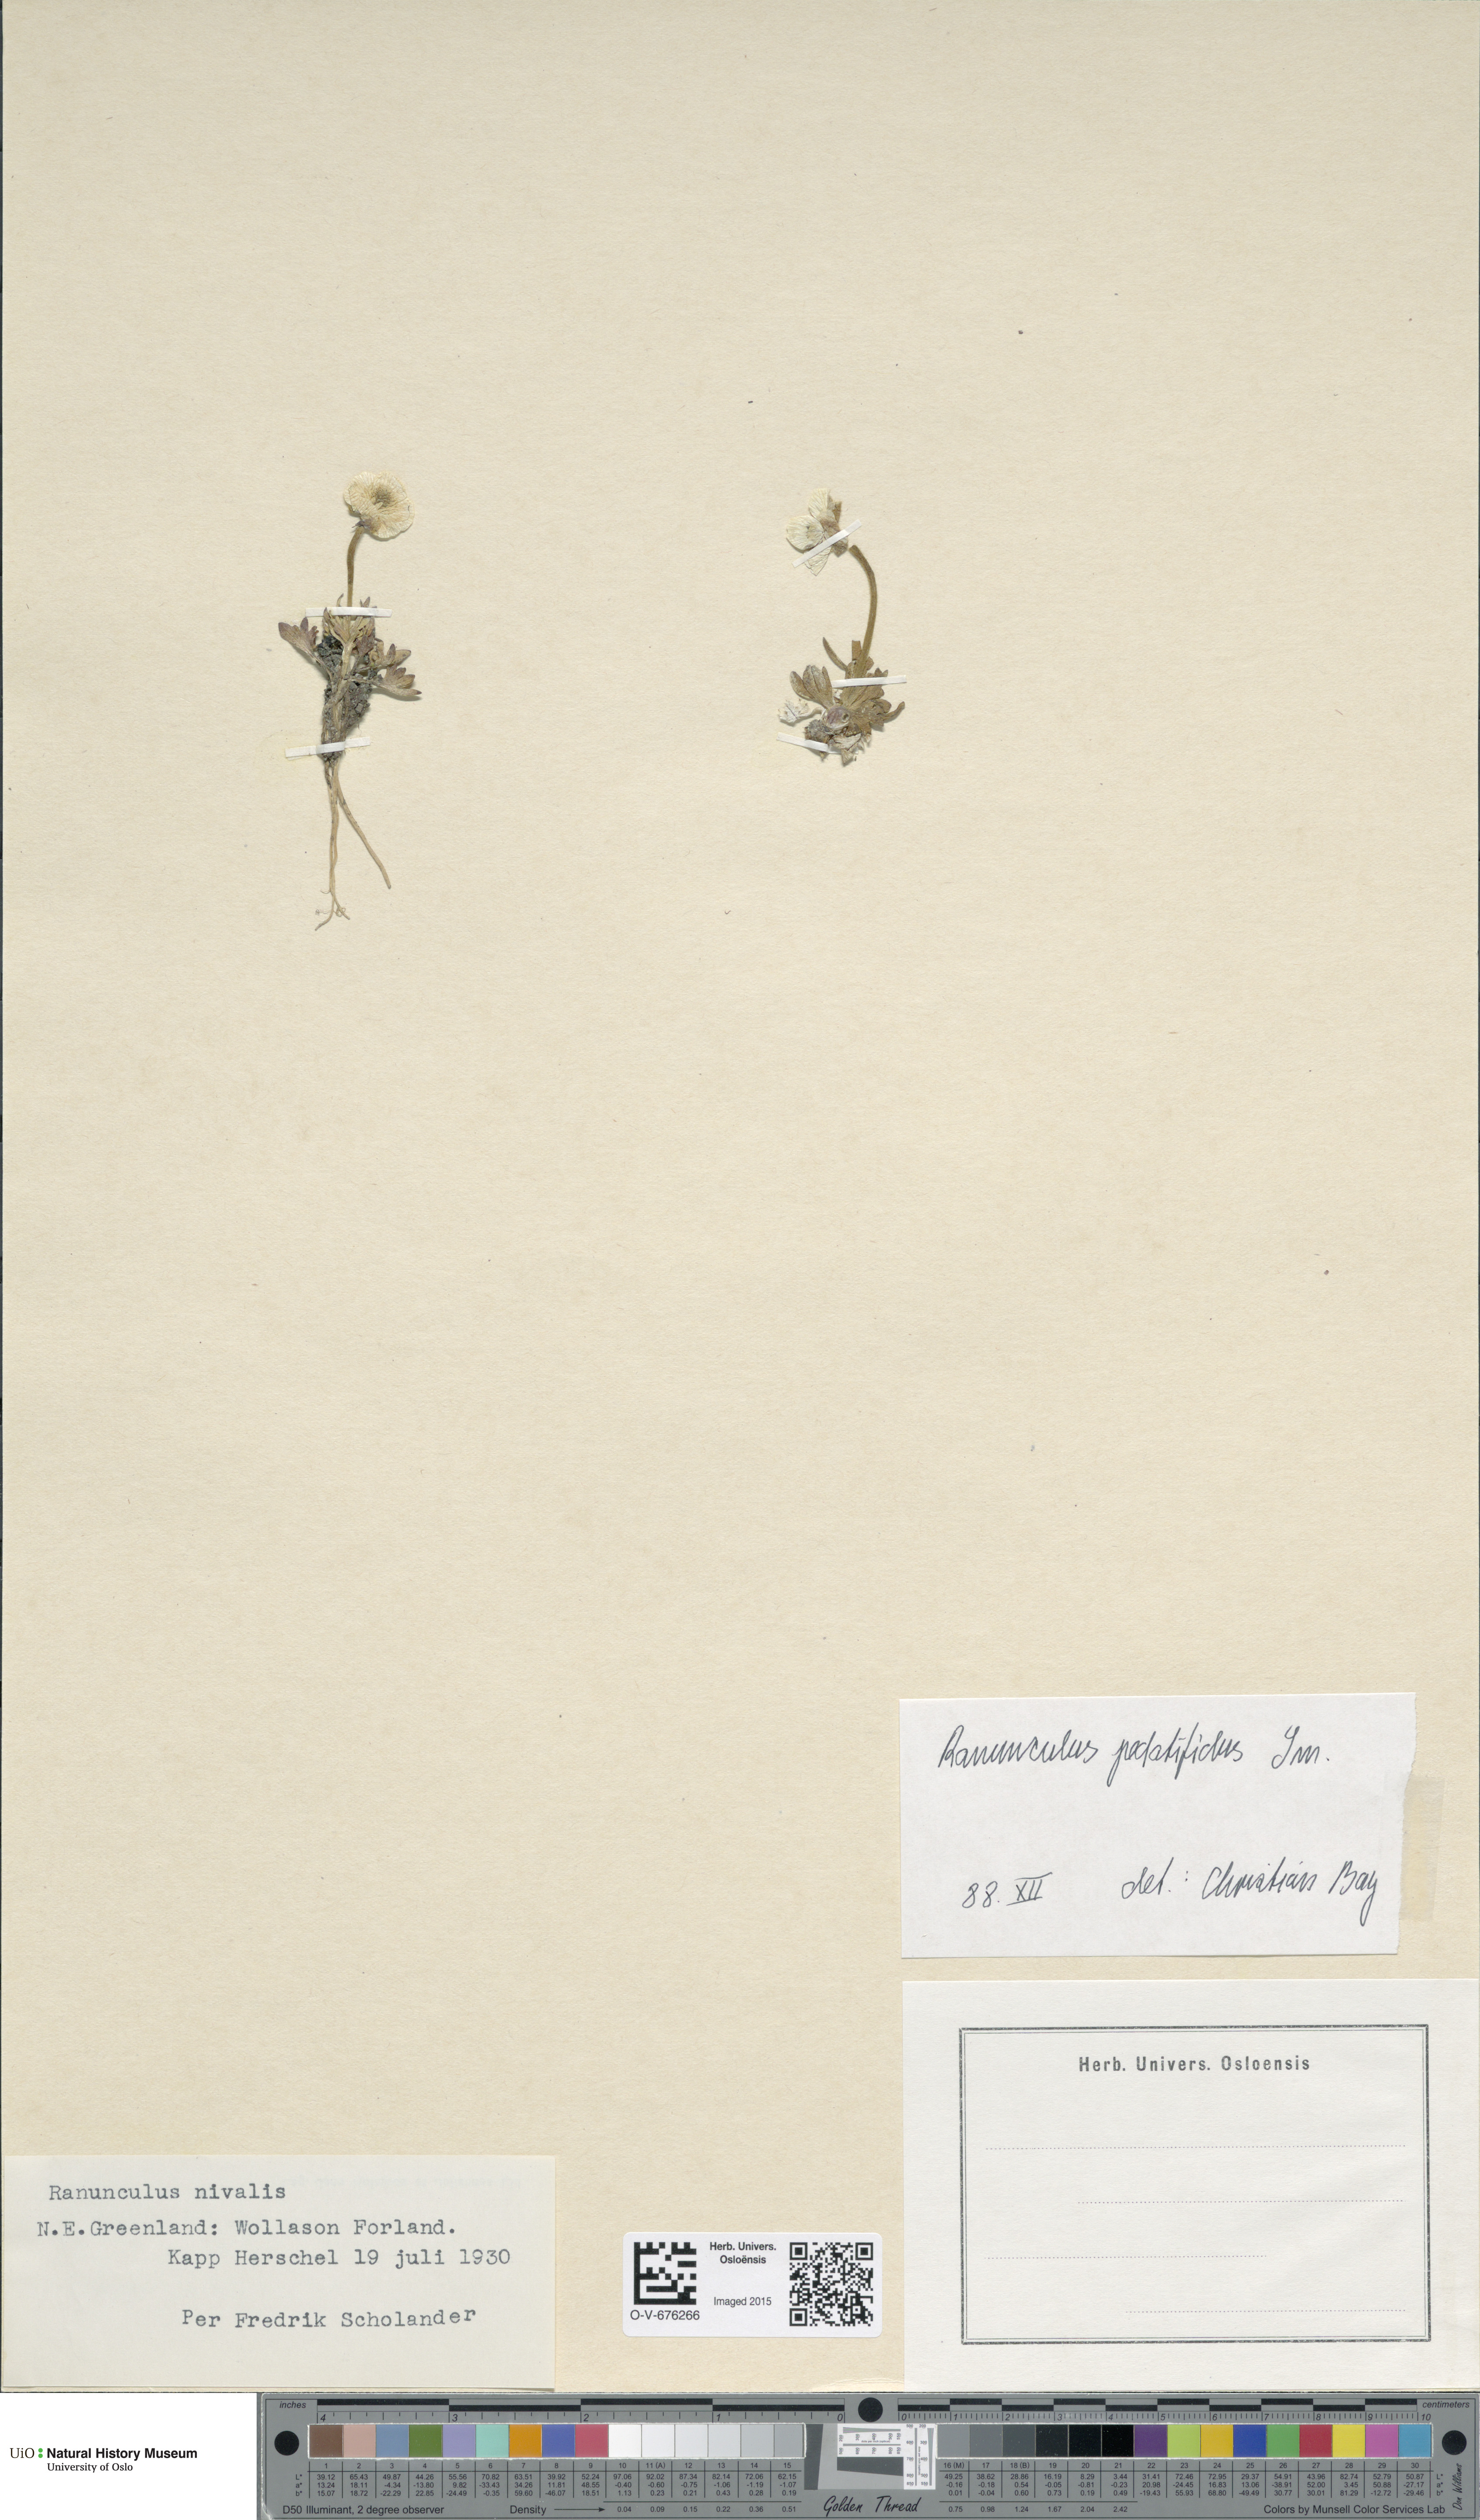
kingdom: Plantae
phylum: Tracheophyta
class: Magnoliopsida
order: Ranunculales
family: Ranunculaceae
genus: Ranunculus
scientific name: Ranunculus nivalis
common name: Snow buttercup
